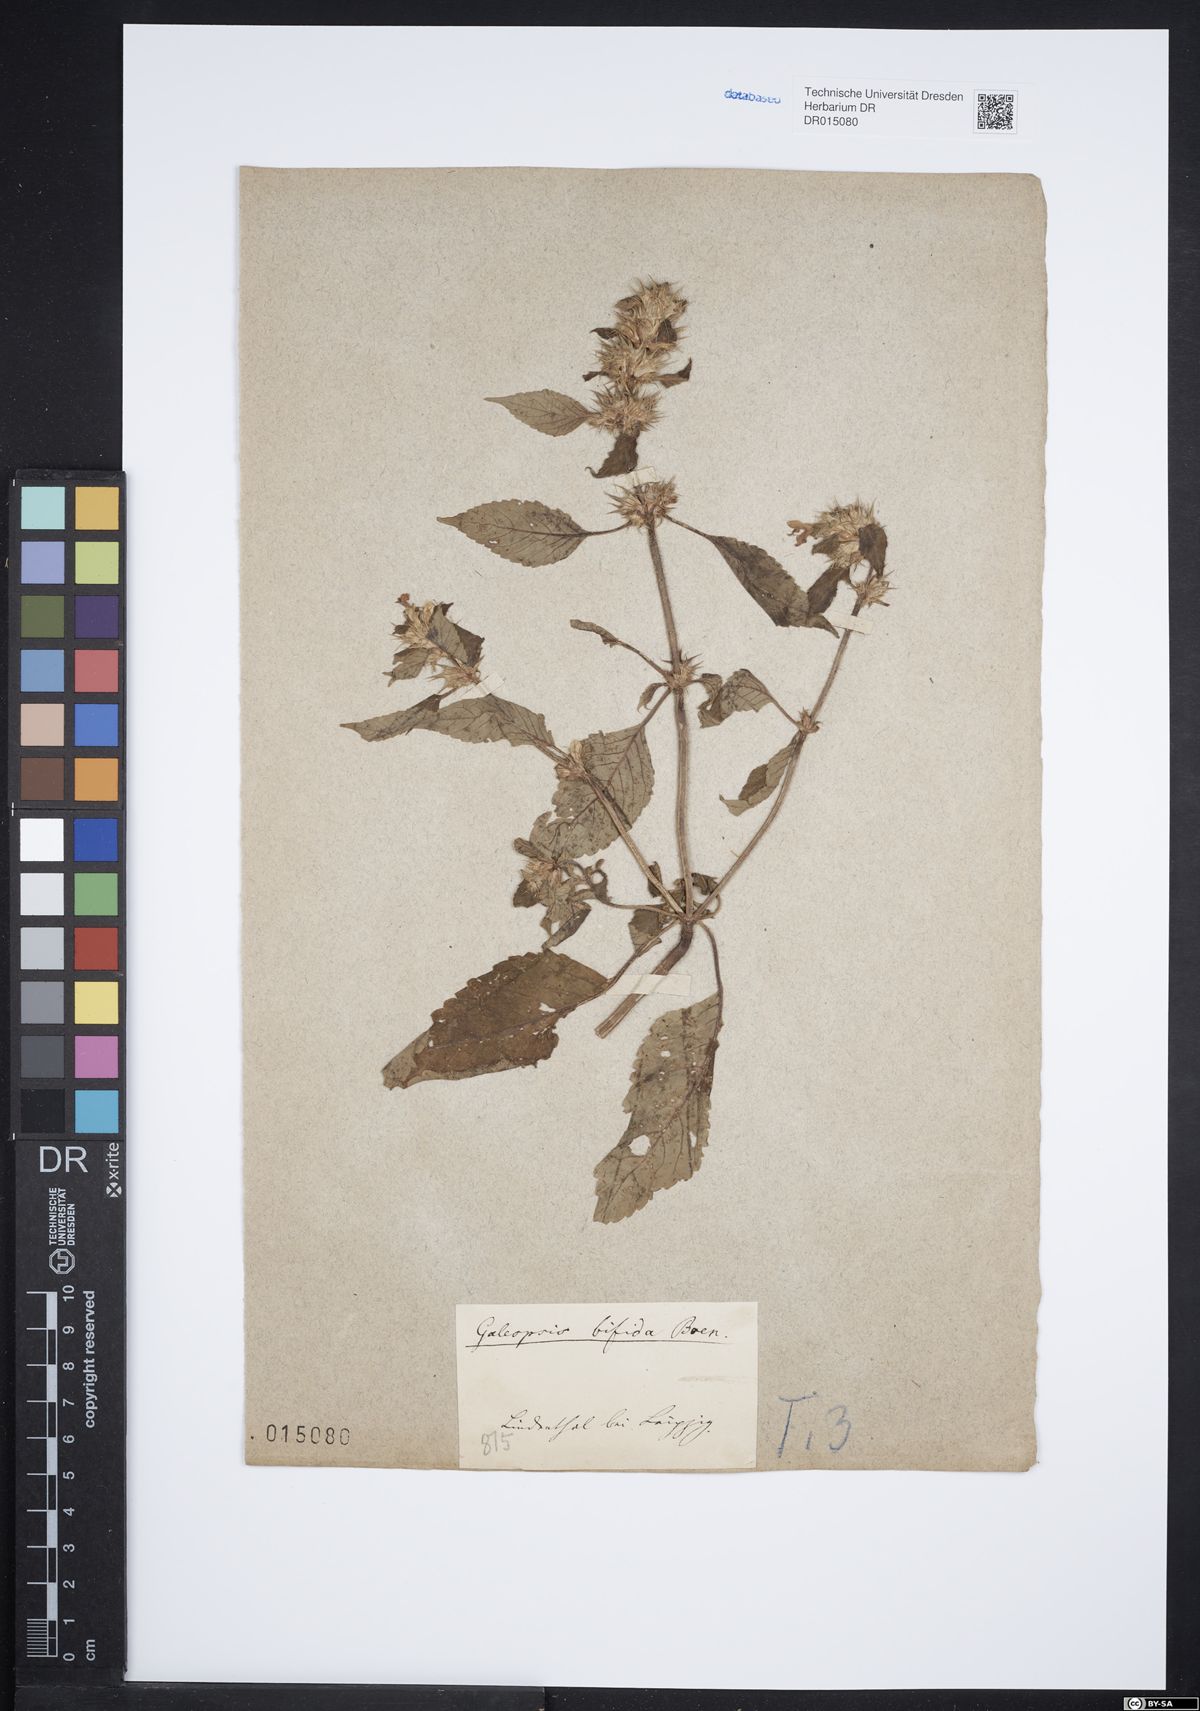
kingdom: Plantae
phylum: Tracheophyta
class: Magnoliopsida
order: Lamiales
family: Lamiaceae
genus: Galeopsis
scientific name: Galeopsis bifida
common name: Bifid hemp-nettle
